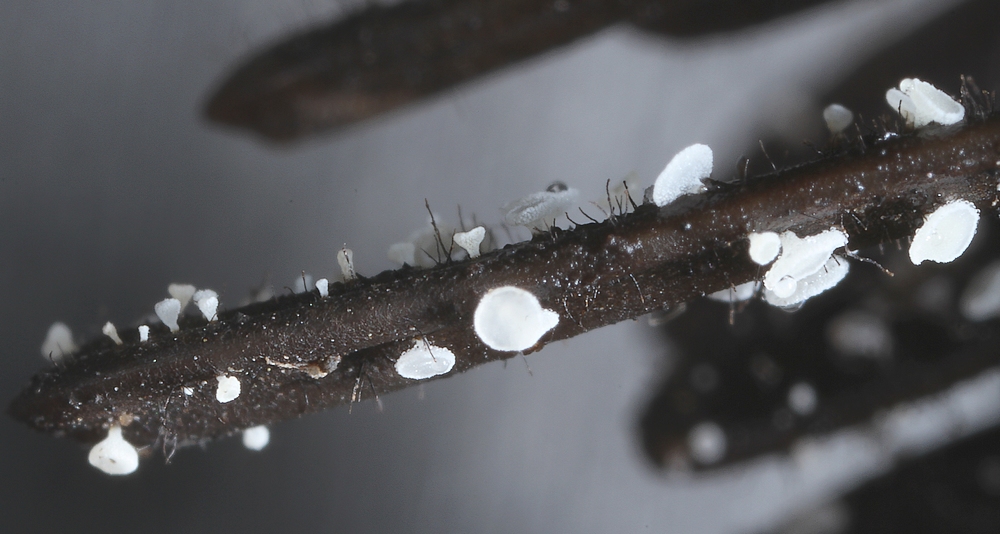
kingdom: Fungi
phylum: Ascomycota
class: Leotiomycetes
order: Helotiales
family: Hyaloscyphaceae
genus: Cistella
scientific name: Cistella acuum
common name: nåle-sirskive
